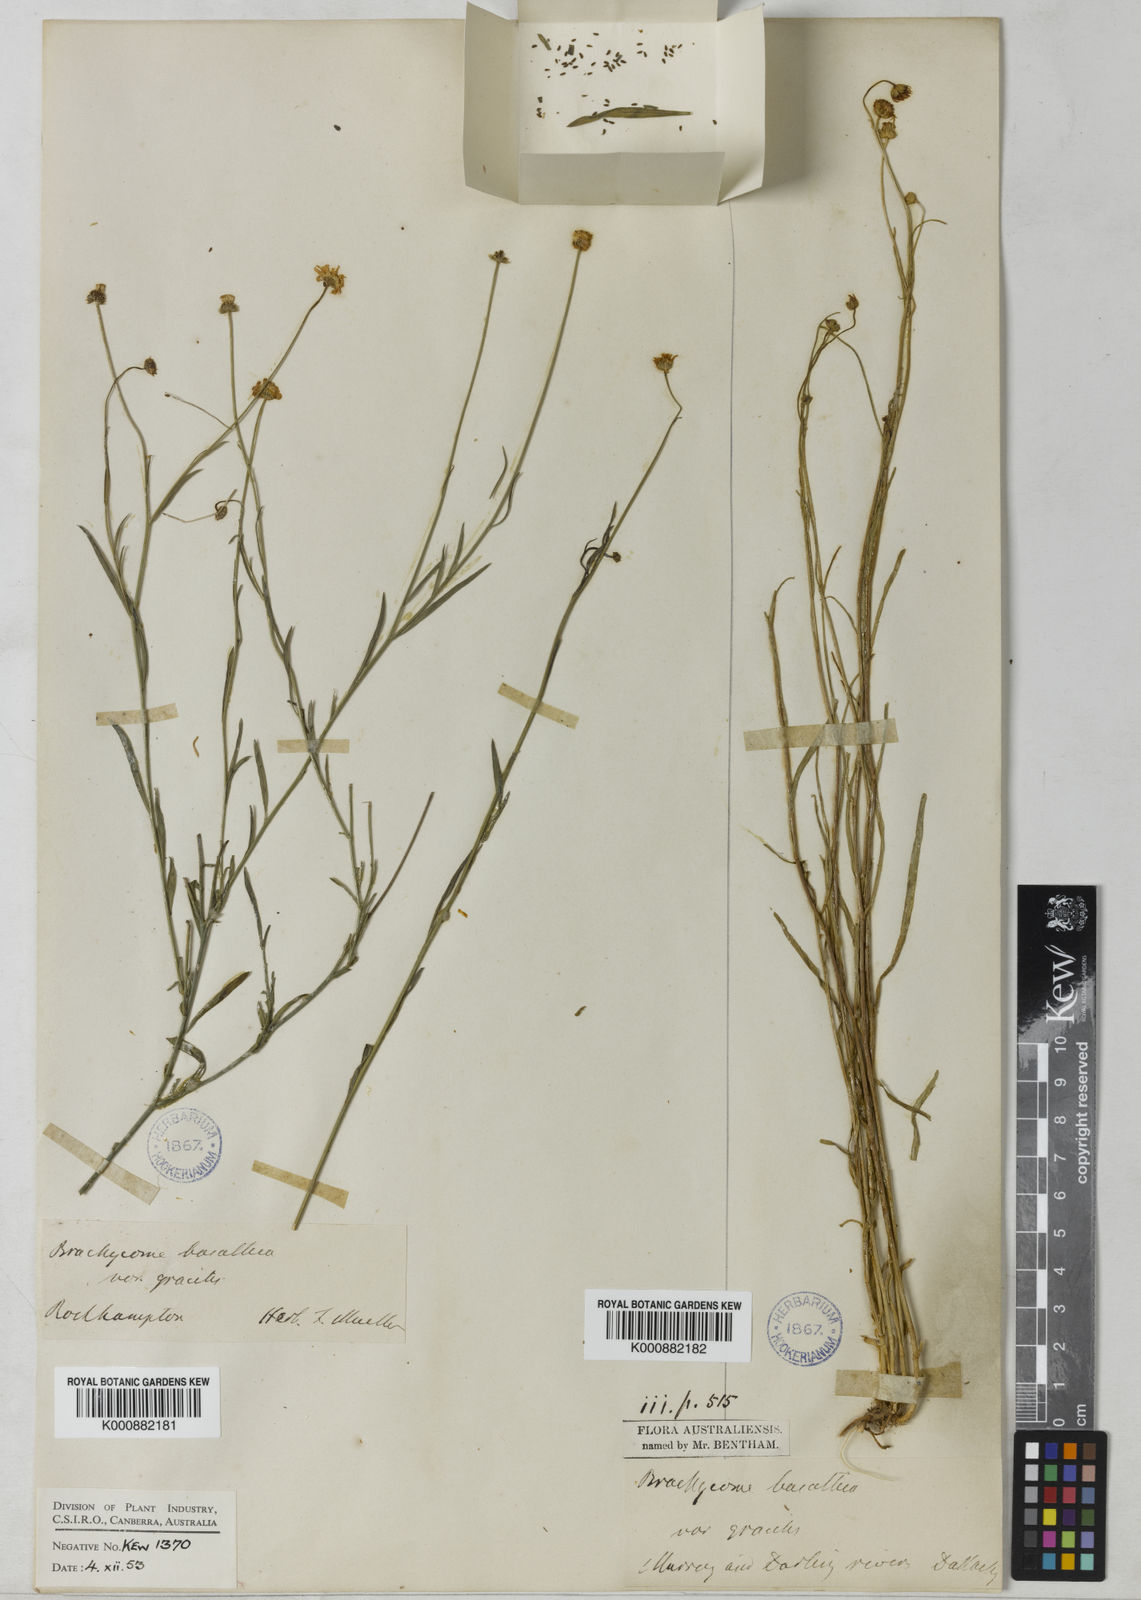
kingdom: Plantae
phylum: Tracheophyta
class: Magnoliopsida
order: Asterales
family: Asteraceae
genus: Brachyscome
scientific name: Brachyscome basaltica
